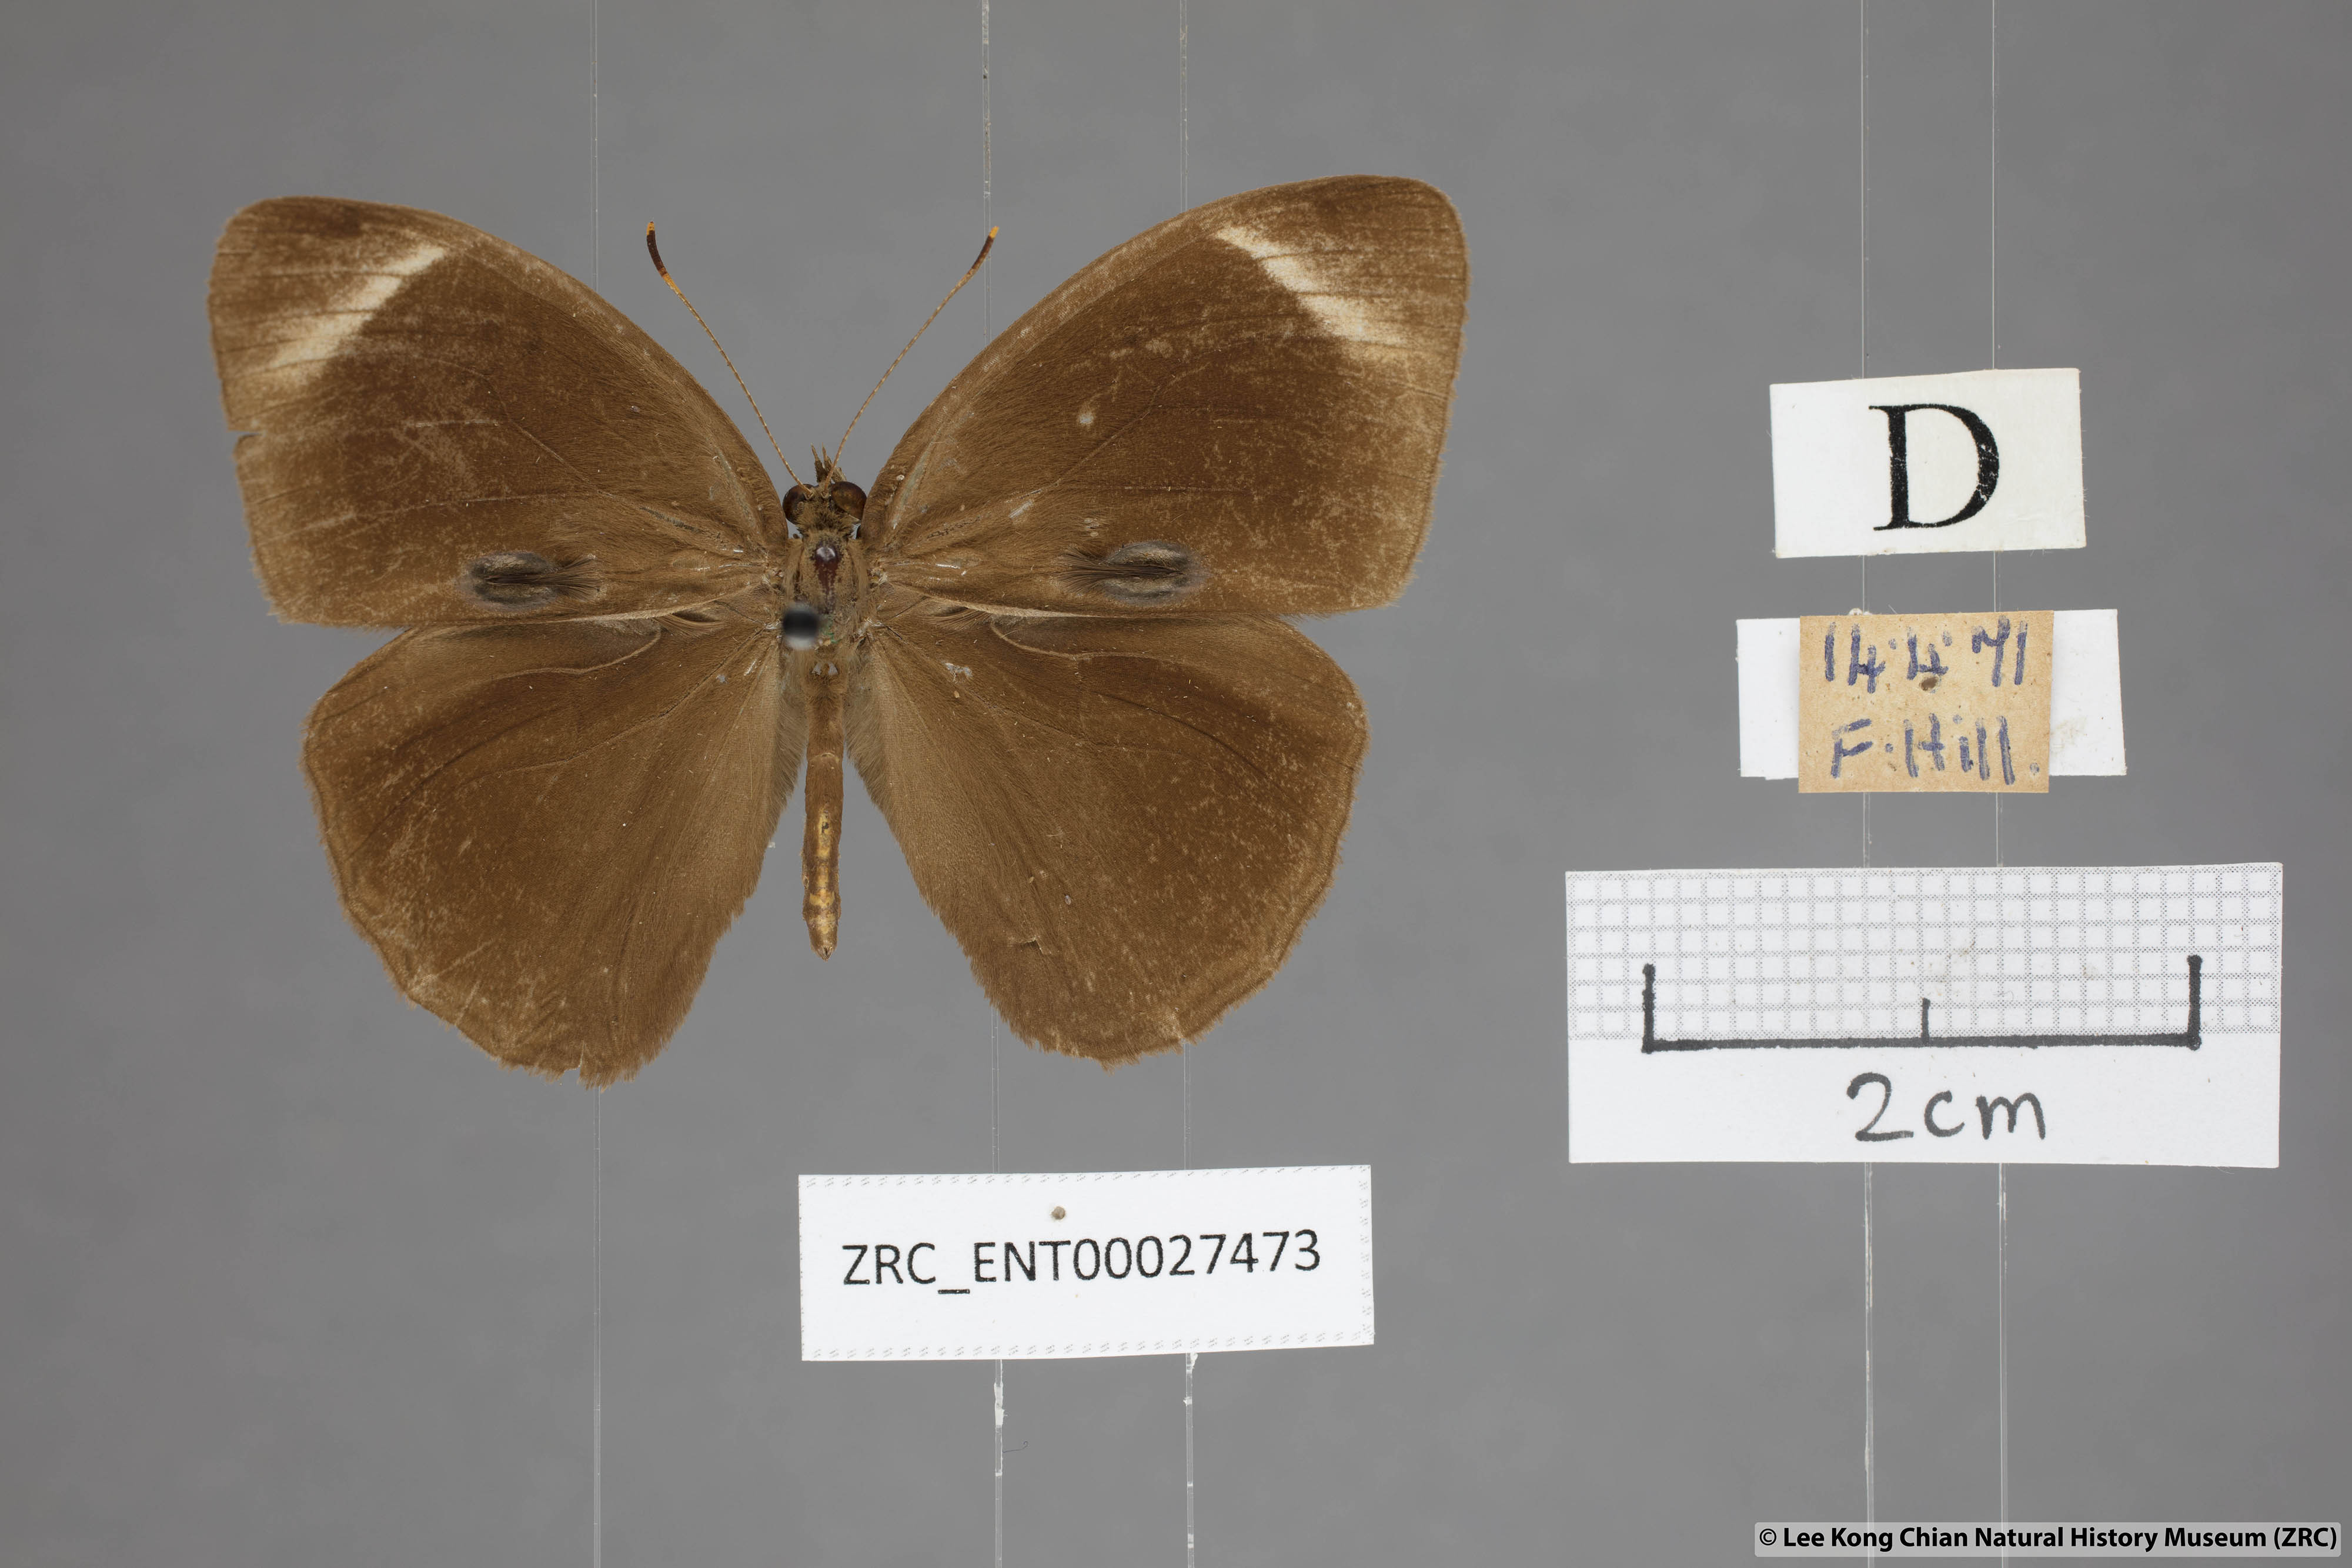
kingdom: Animalia
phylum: Arthropoda
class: Insecta
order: Lepidoptera
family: Nymphalidae
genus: Mycalesis
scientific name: Mycalesis anaxias
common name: White-bar bushbrown
